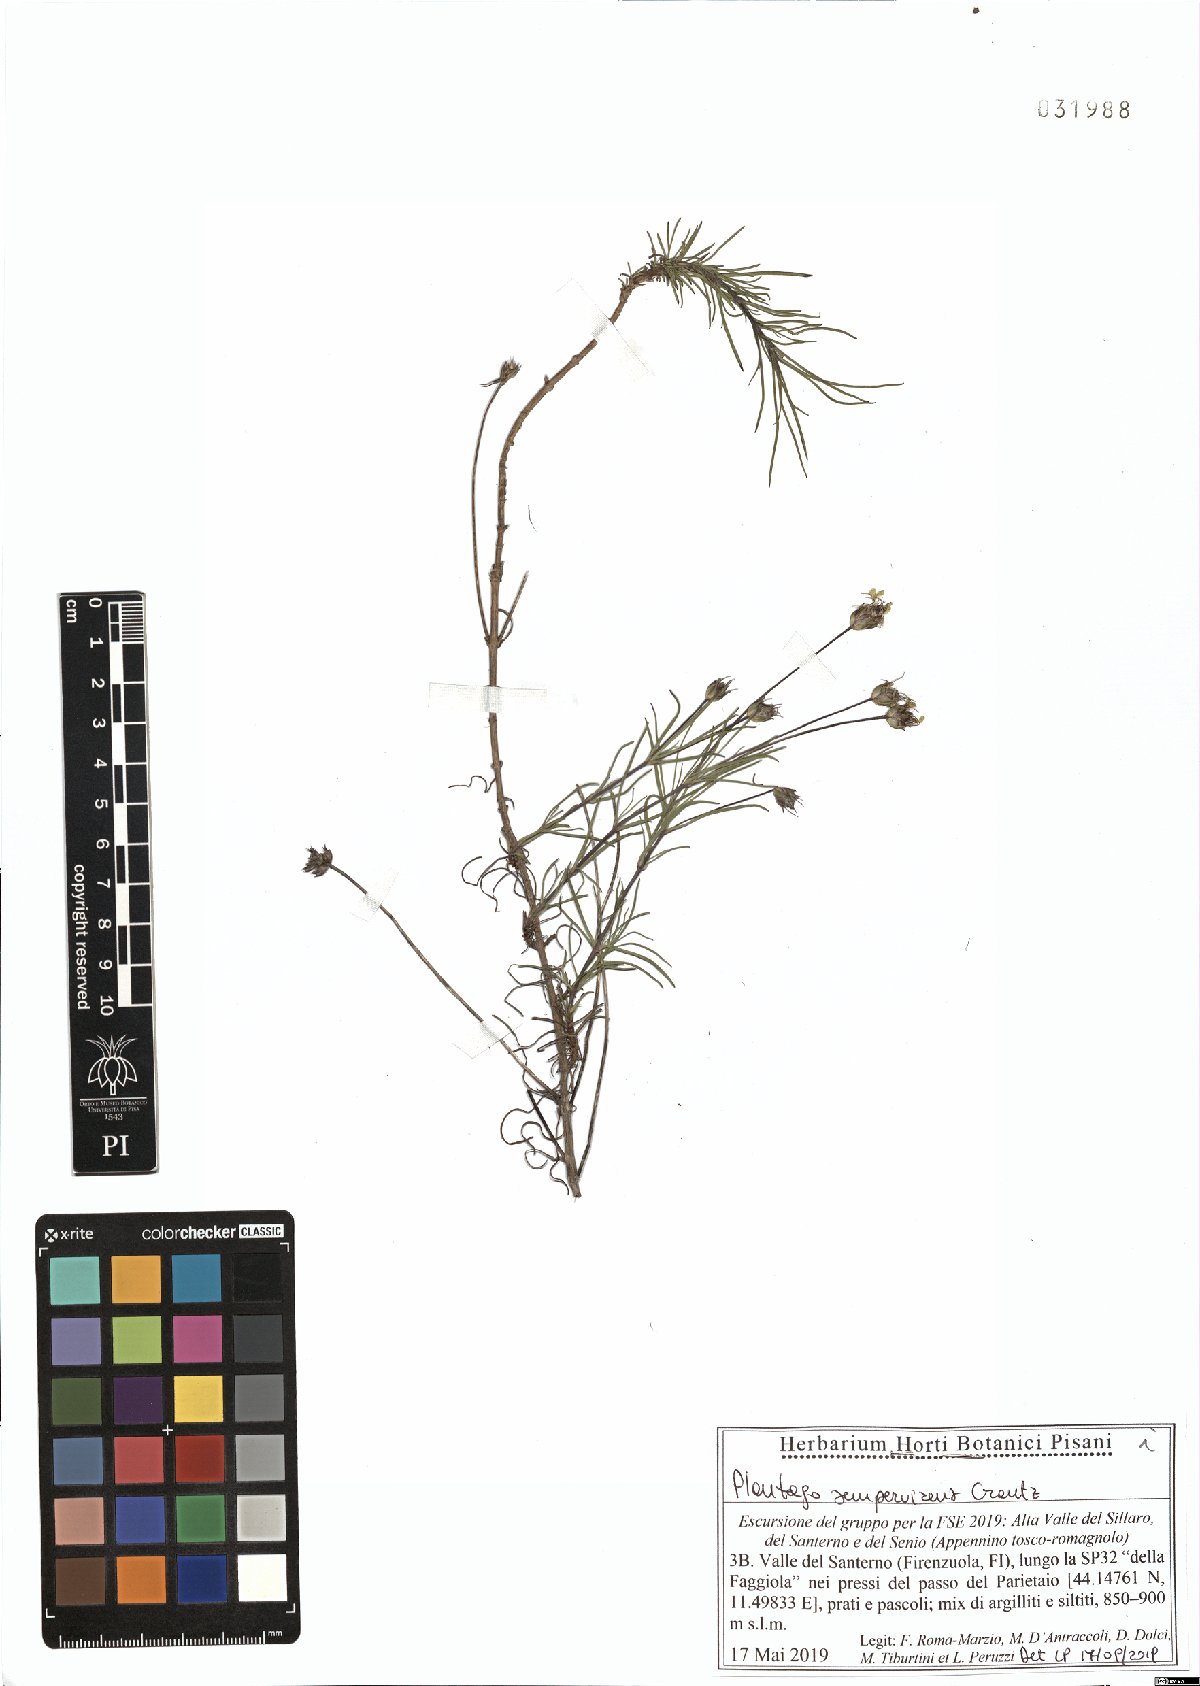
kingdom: Plantae
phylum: Tracheophyta
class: Magnoliopsida
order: Lamiales
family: Plantaginaceae
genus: Plantago
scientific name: Plantago sempervirens
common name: Shrubby plantain
